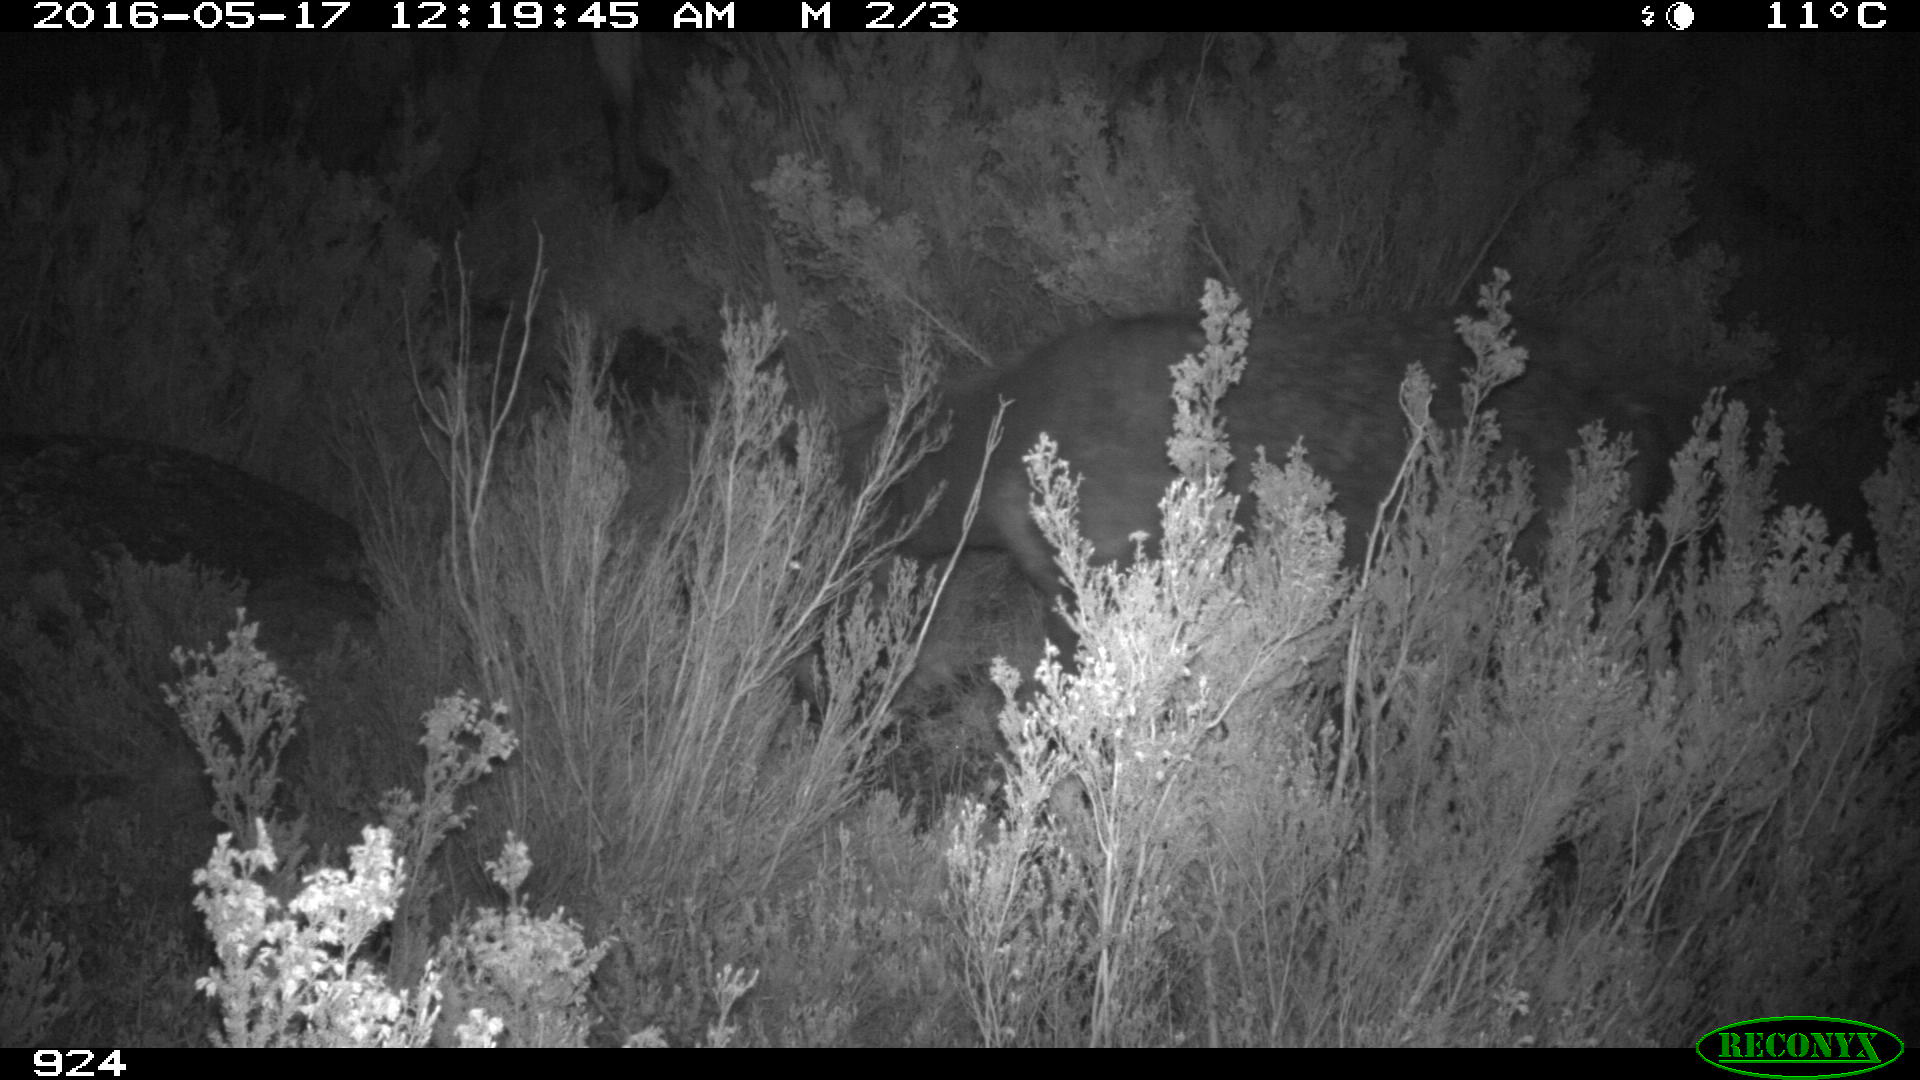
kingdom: Animalia
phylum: Chordata
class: Mammalia
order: Perissodactyla
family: Equidae
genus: Equus
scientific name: Equus caballus
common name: Horse
